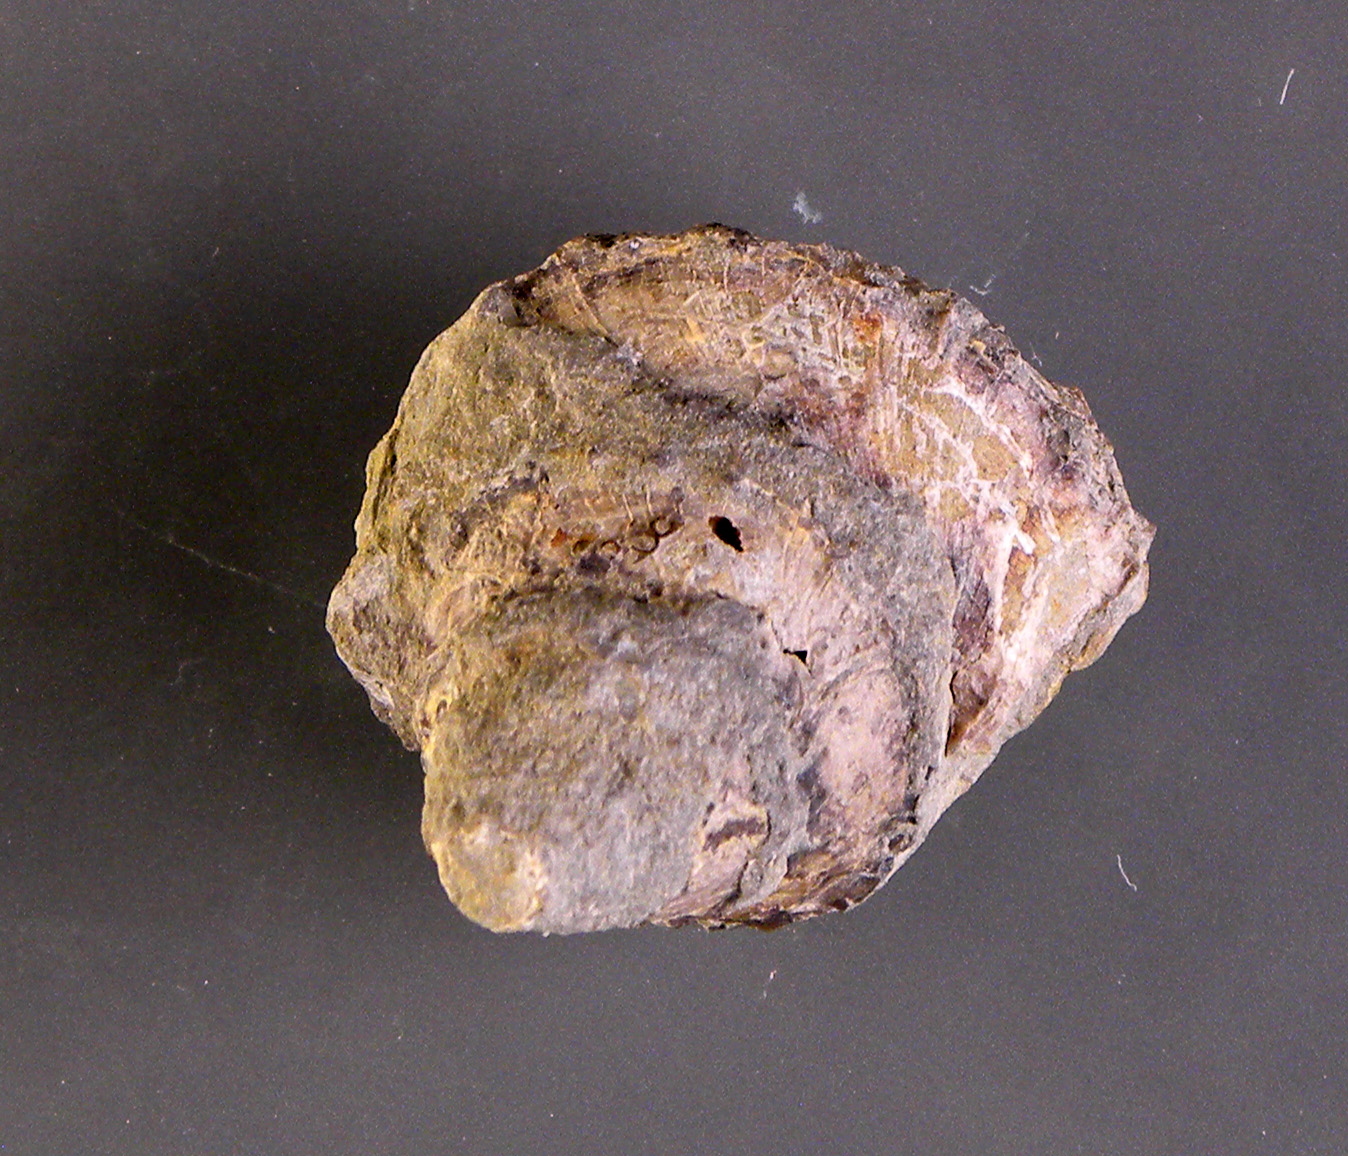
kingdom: Animalia
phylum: Mollusca
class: Gastropoda
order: Trochida
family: Nododelphinulidae
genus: Costatrochus
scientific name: Costatrochus subduplicatus
